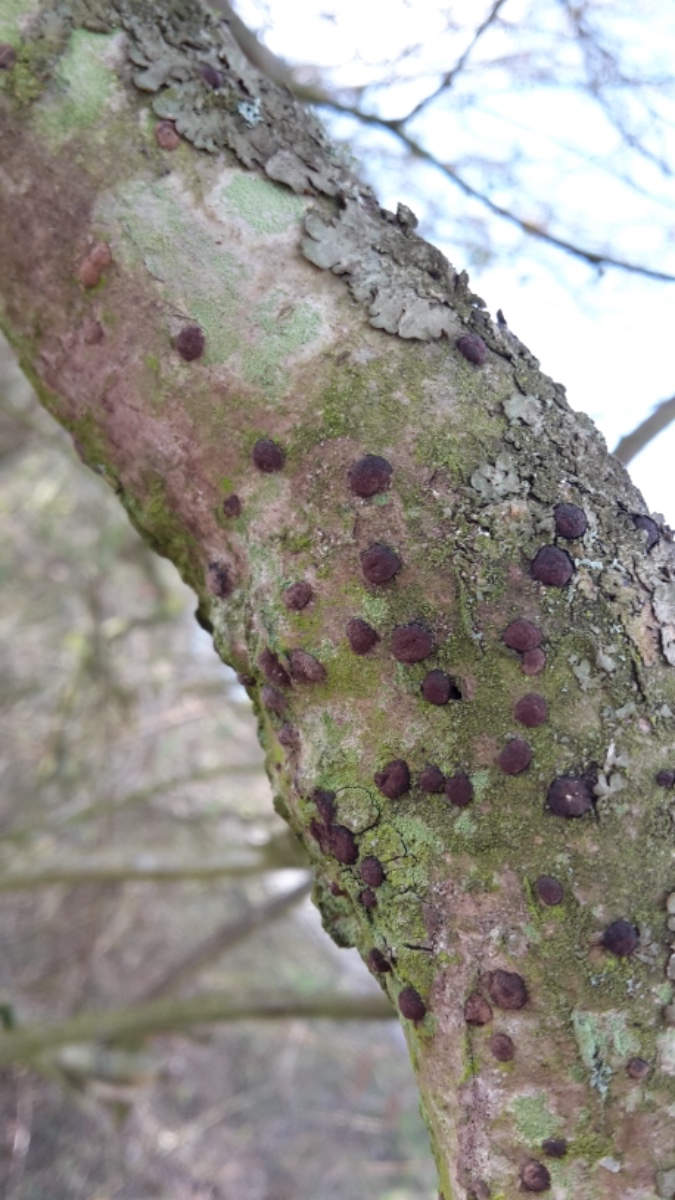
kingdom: Fungi
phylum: Ascomycota
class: Sordariomycetes
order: Xylariales
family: Hypoxylaceae
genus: Hypoxylon
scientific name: Hypoxylon fuscum
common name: kegleformet kulbær
